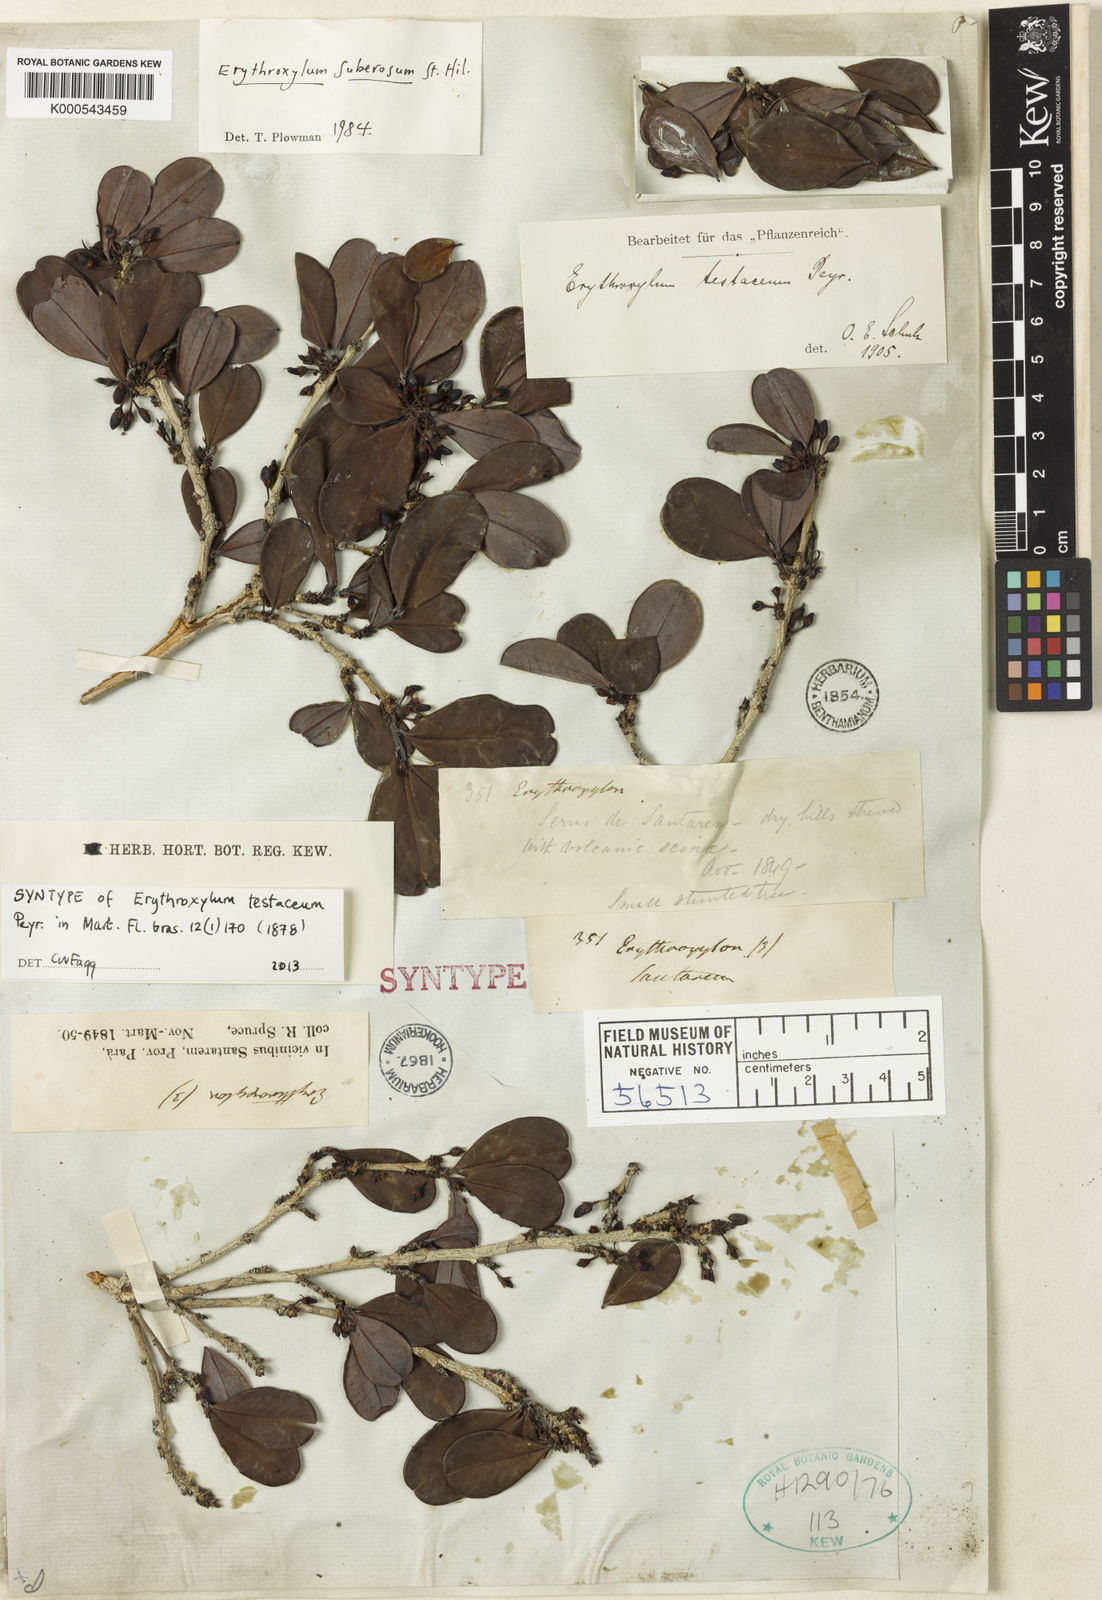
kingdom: Plantae
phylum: Tracheophyta
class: Magnoliopsida
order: Malpighiales
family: Erythroxylaceae
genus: Erythroxylum
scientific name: Erythroxylum suberosum
